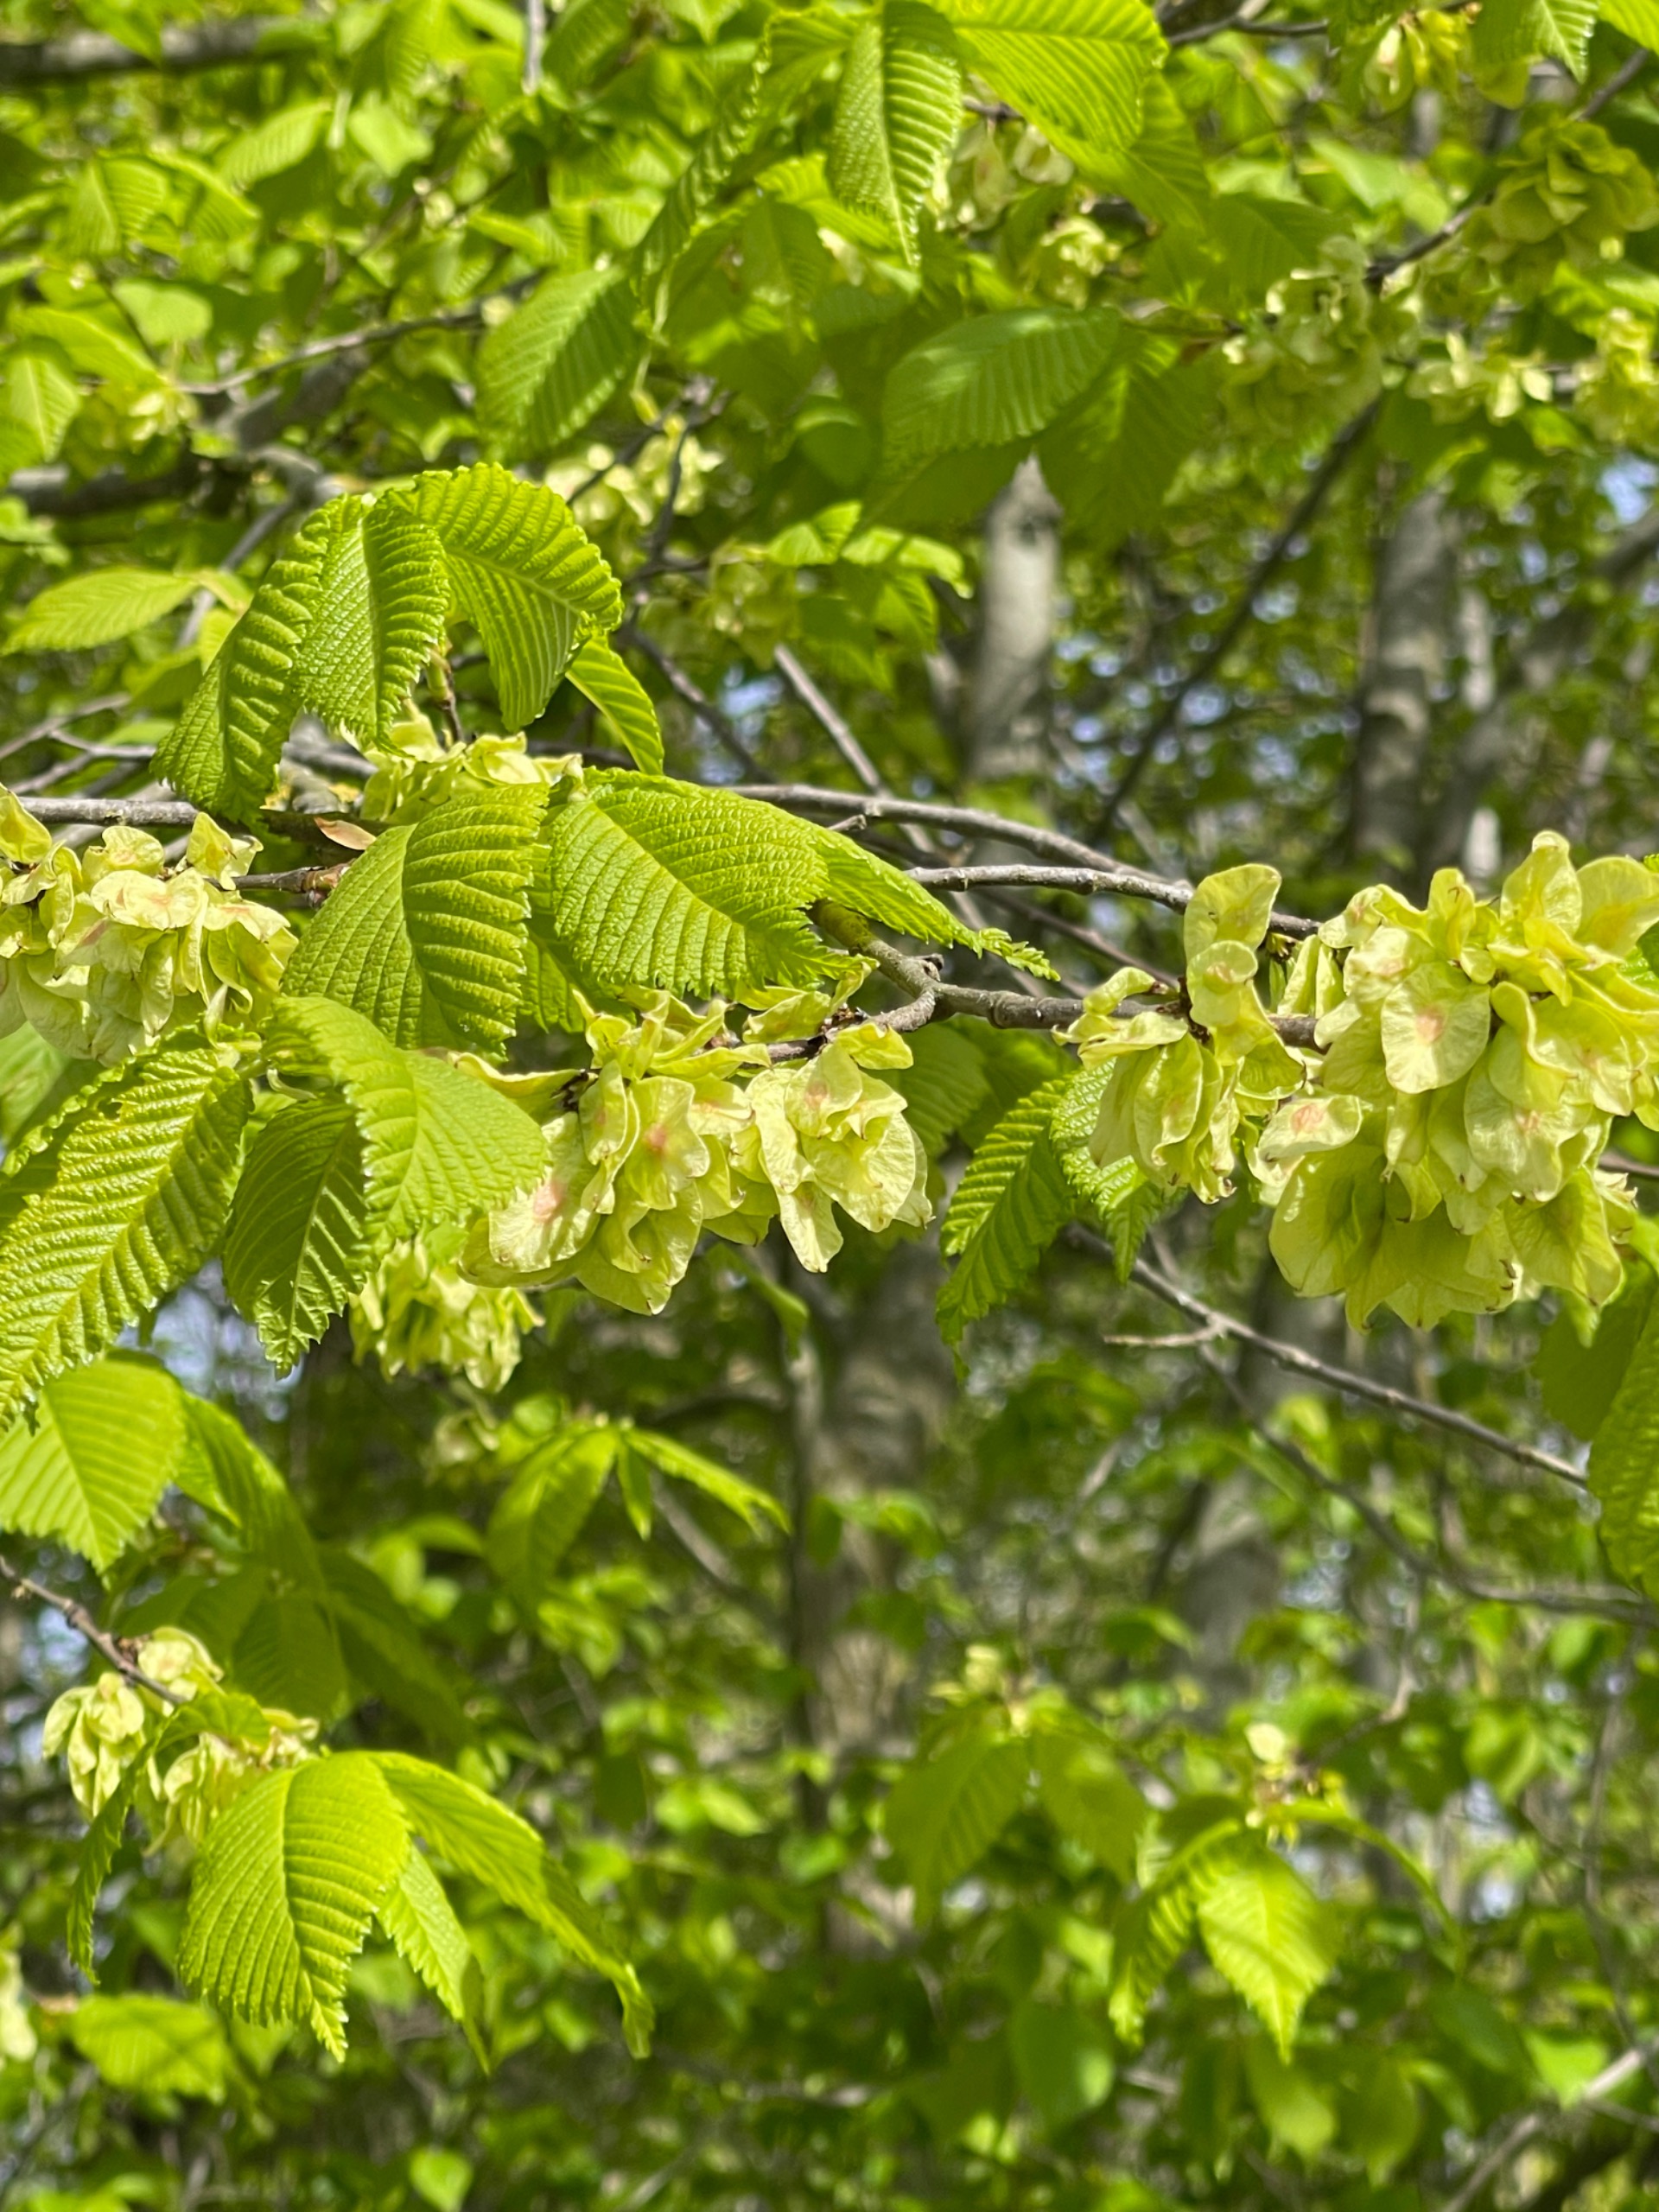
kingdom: Plantae
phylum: Tracheophyta
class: Magnoliopsida
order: Rosales
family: Ulmaceae
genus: Ulmus
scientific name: Ulmus glabra
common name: Skov-elm/storbladet elm
